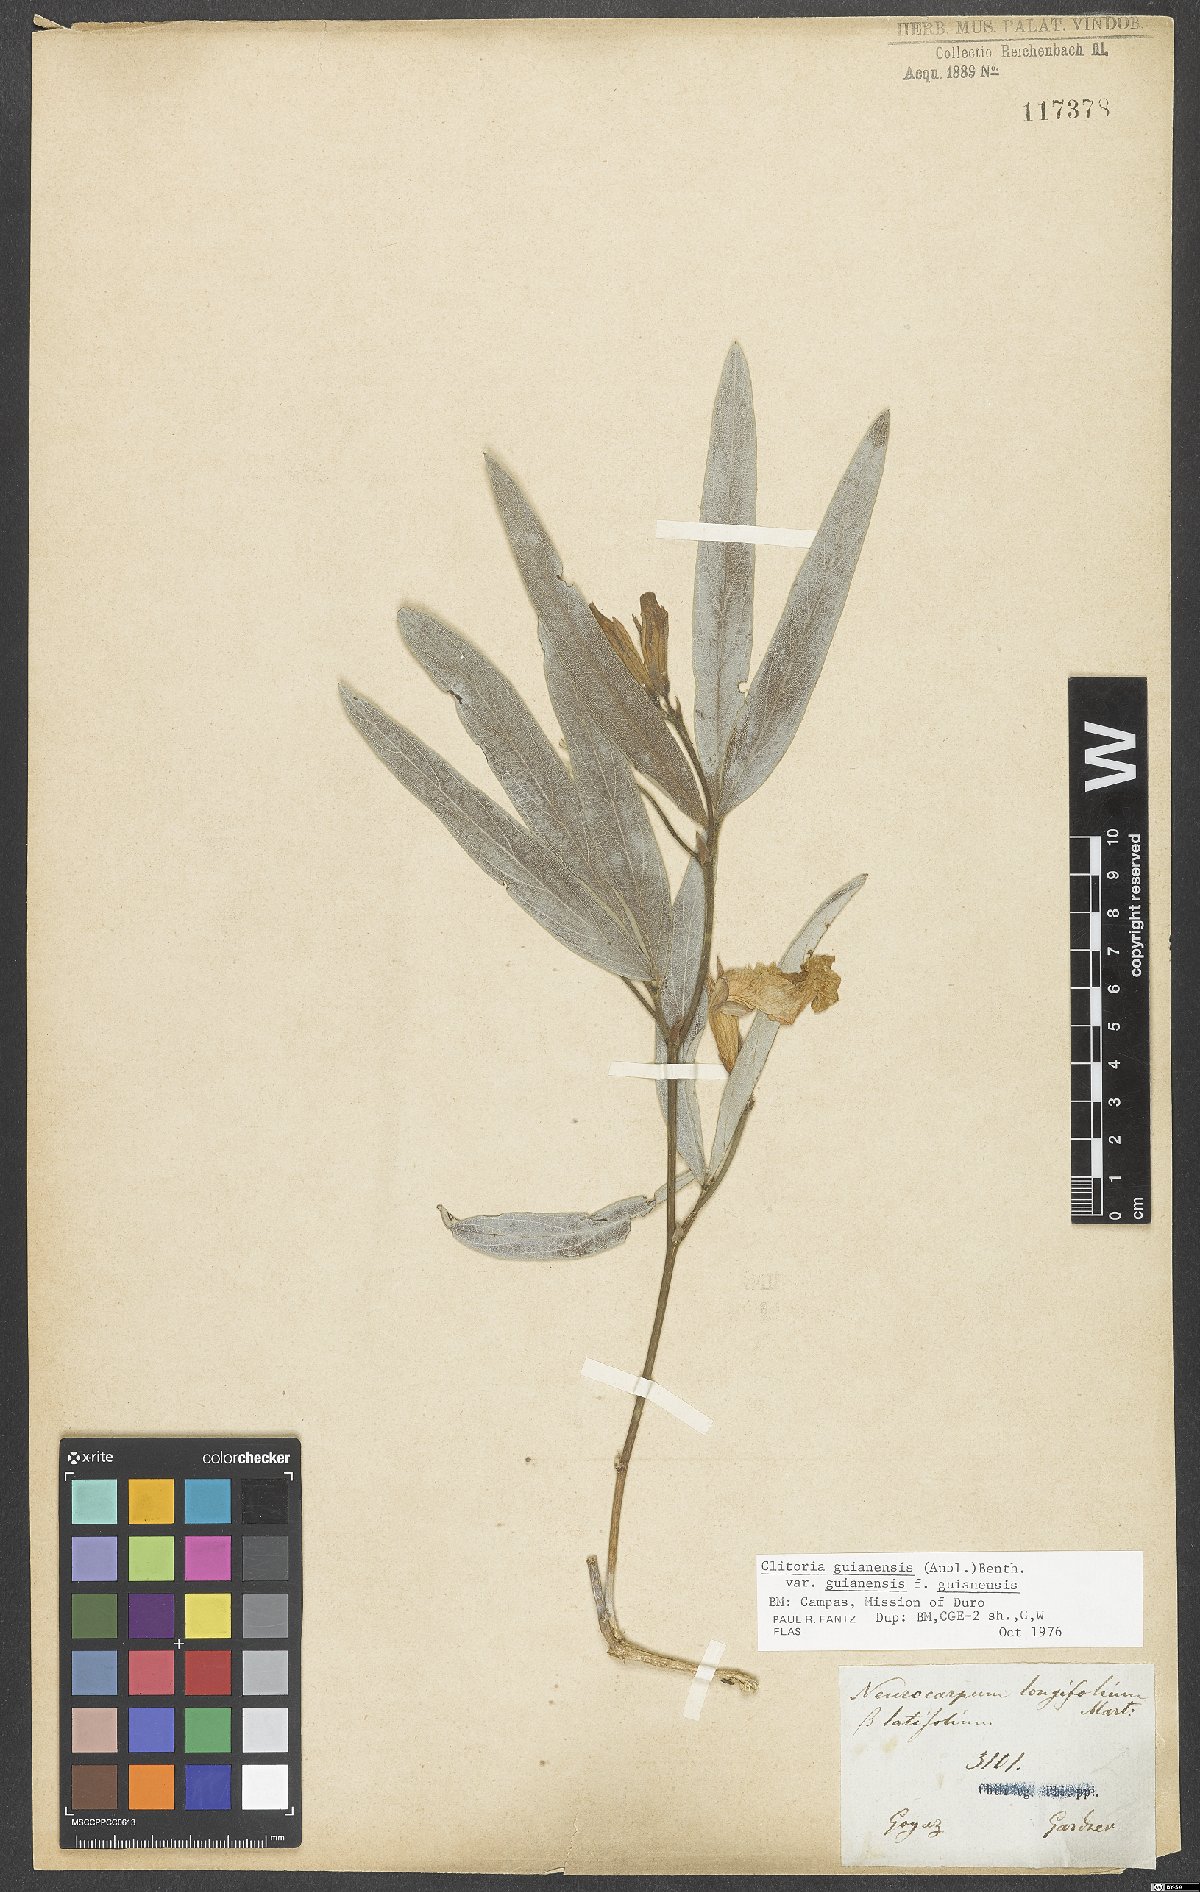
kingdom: Plantae
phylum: Tracheophyta
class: Magnoliopsida
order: Fabales
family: Fabaceae
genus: Clitoria
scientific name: Clitoria guianensis
